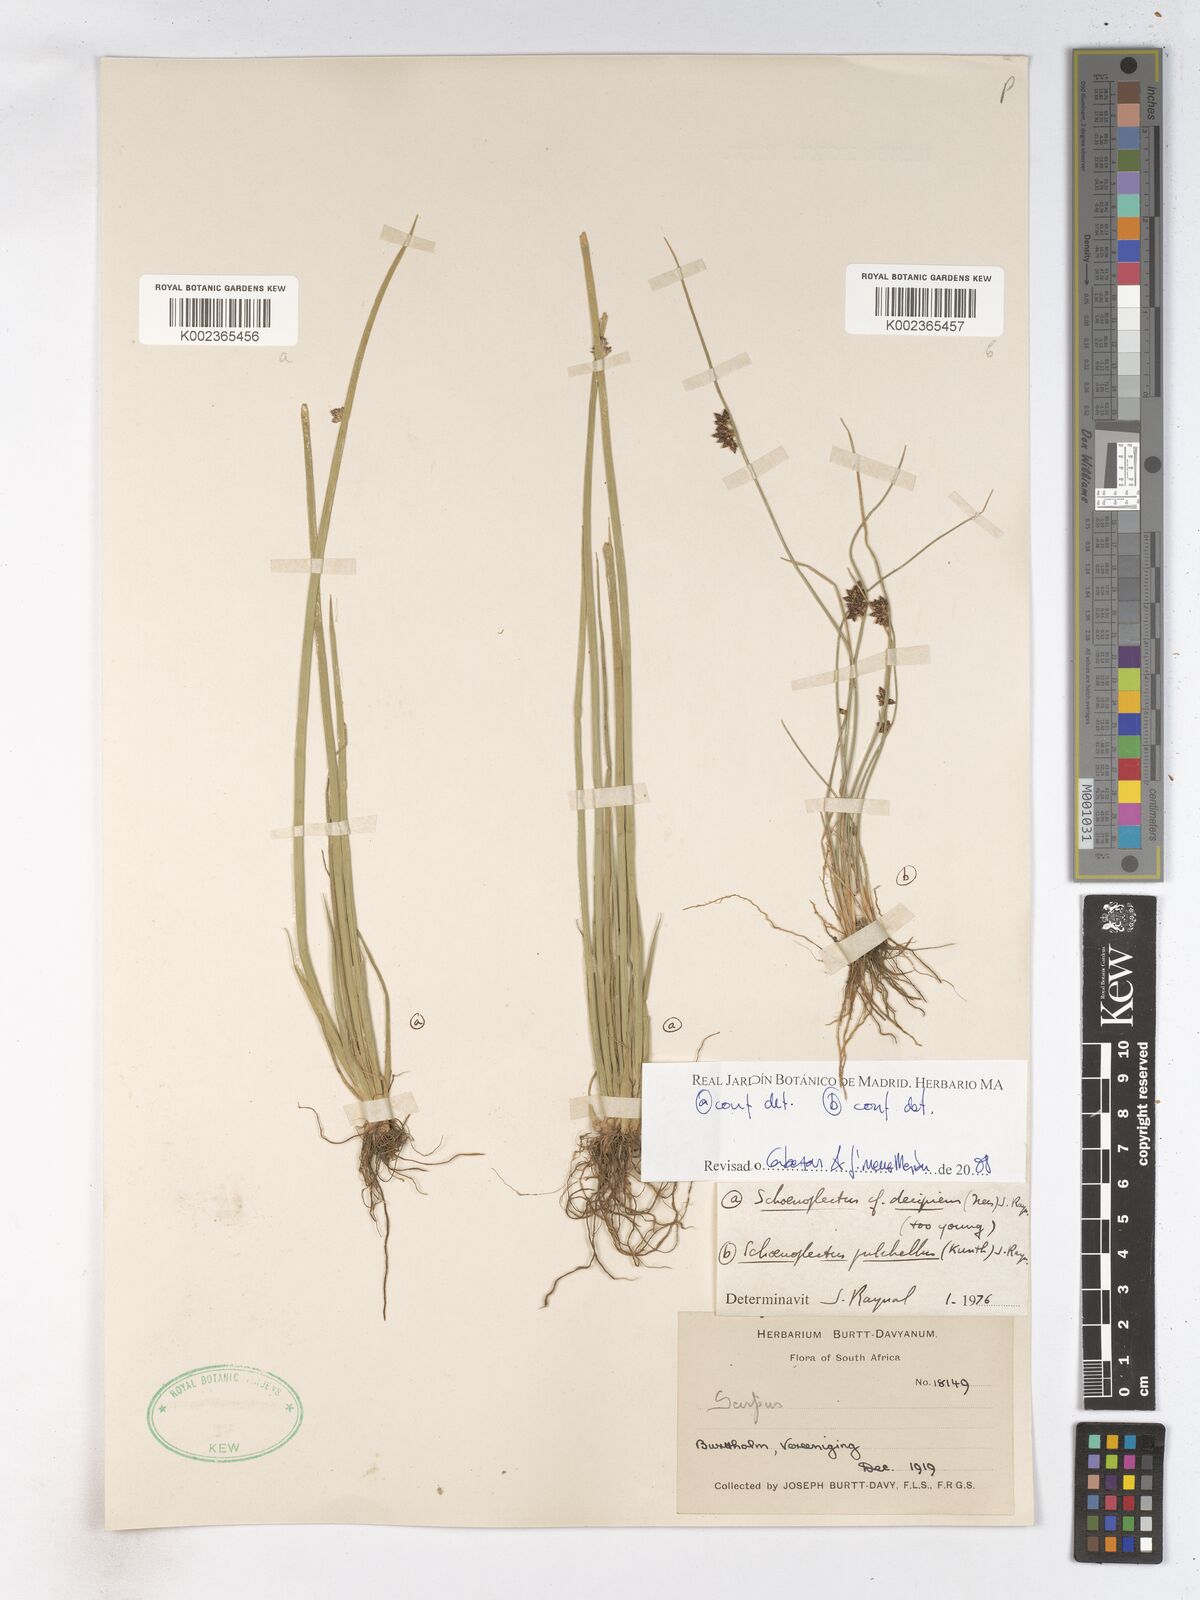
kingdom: Plantae
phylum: Tracheophyta
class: Liliopsida
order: Poales
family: Cyperaceae
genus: Schoenoplectiella
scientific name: Schoenoplectiella paludicola
